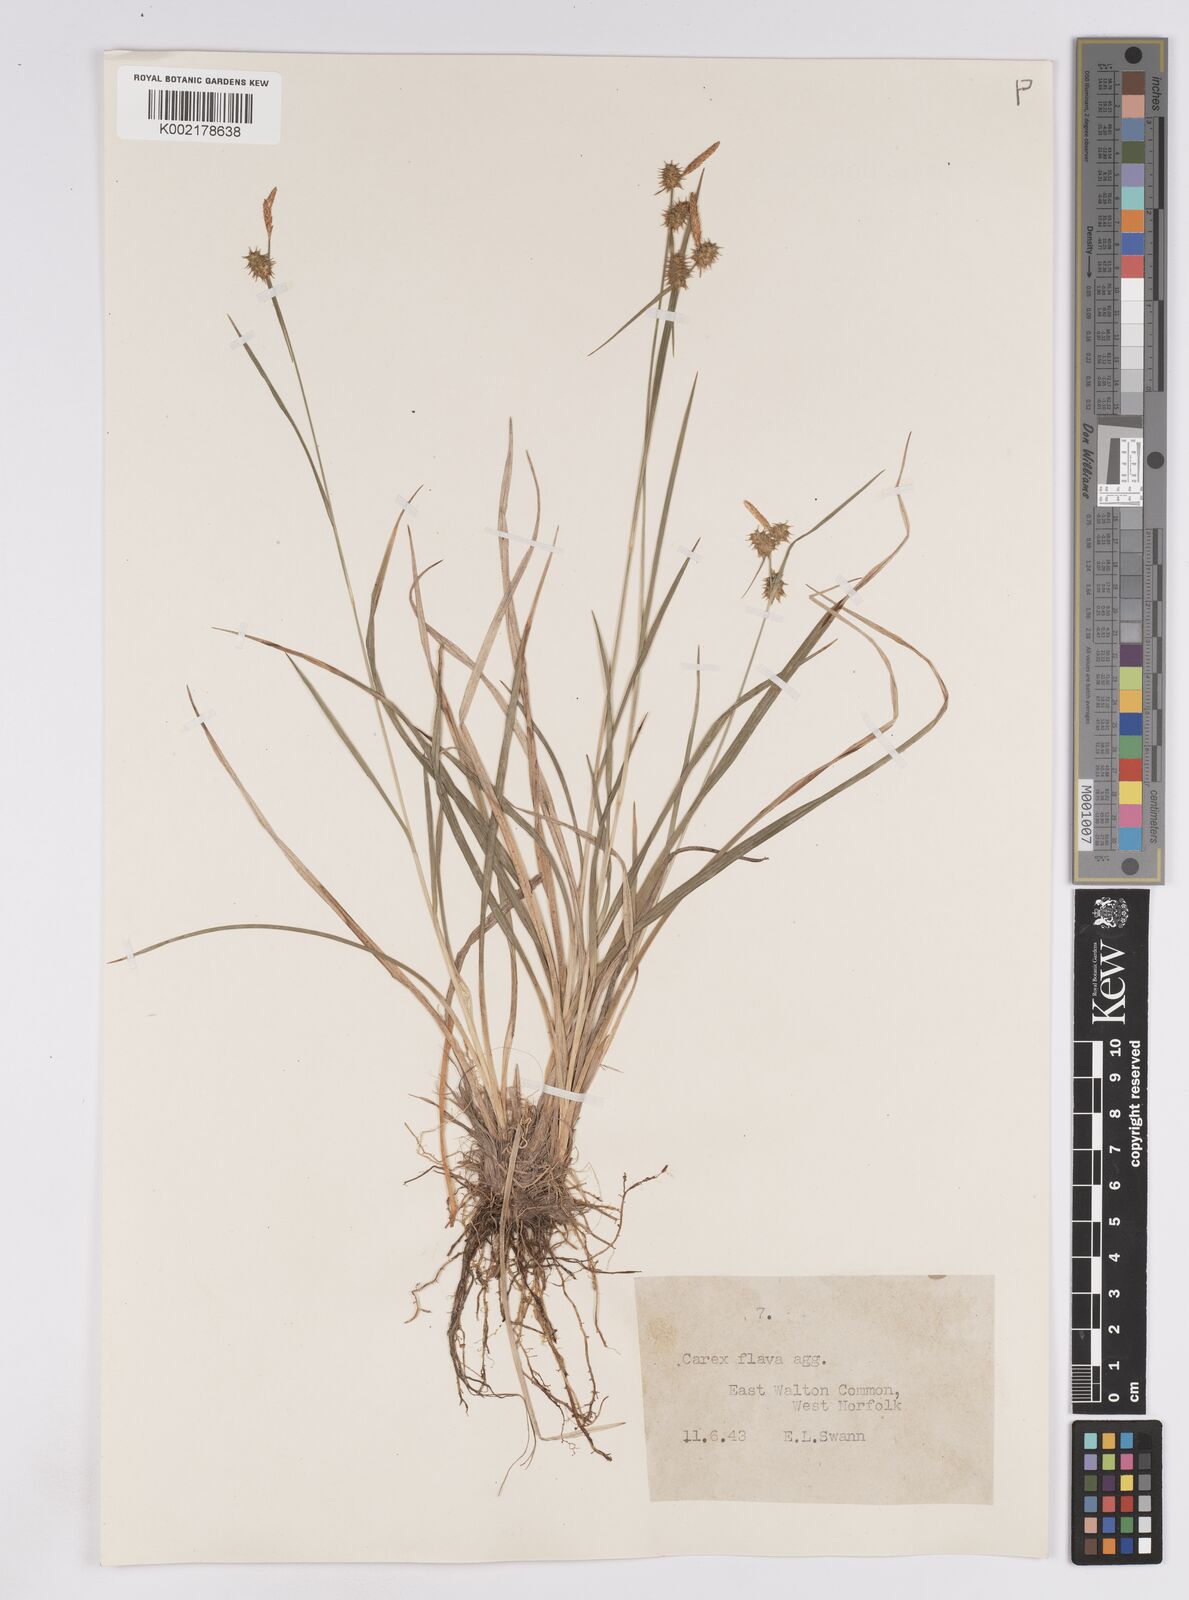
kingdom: Plantae
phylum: Tracheophyta
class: Liliopsida
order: Poales
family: Cyperaceae
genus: Carex
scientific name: Carex lepidocarpa
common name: Long-stalked yellow-sedge
